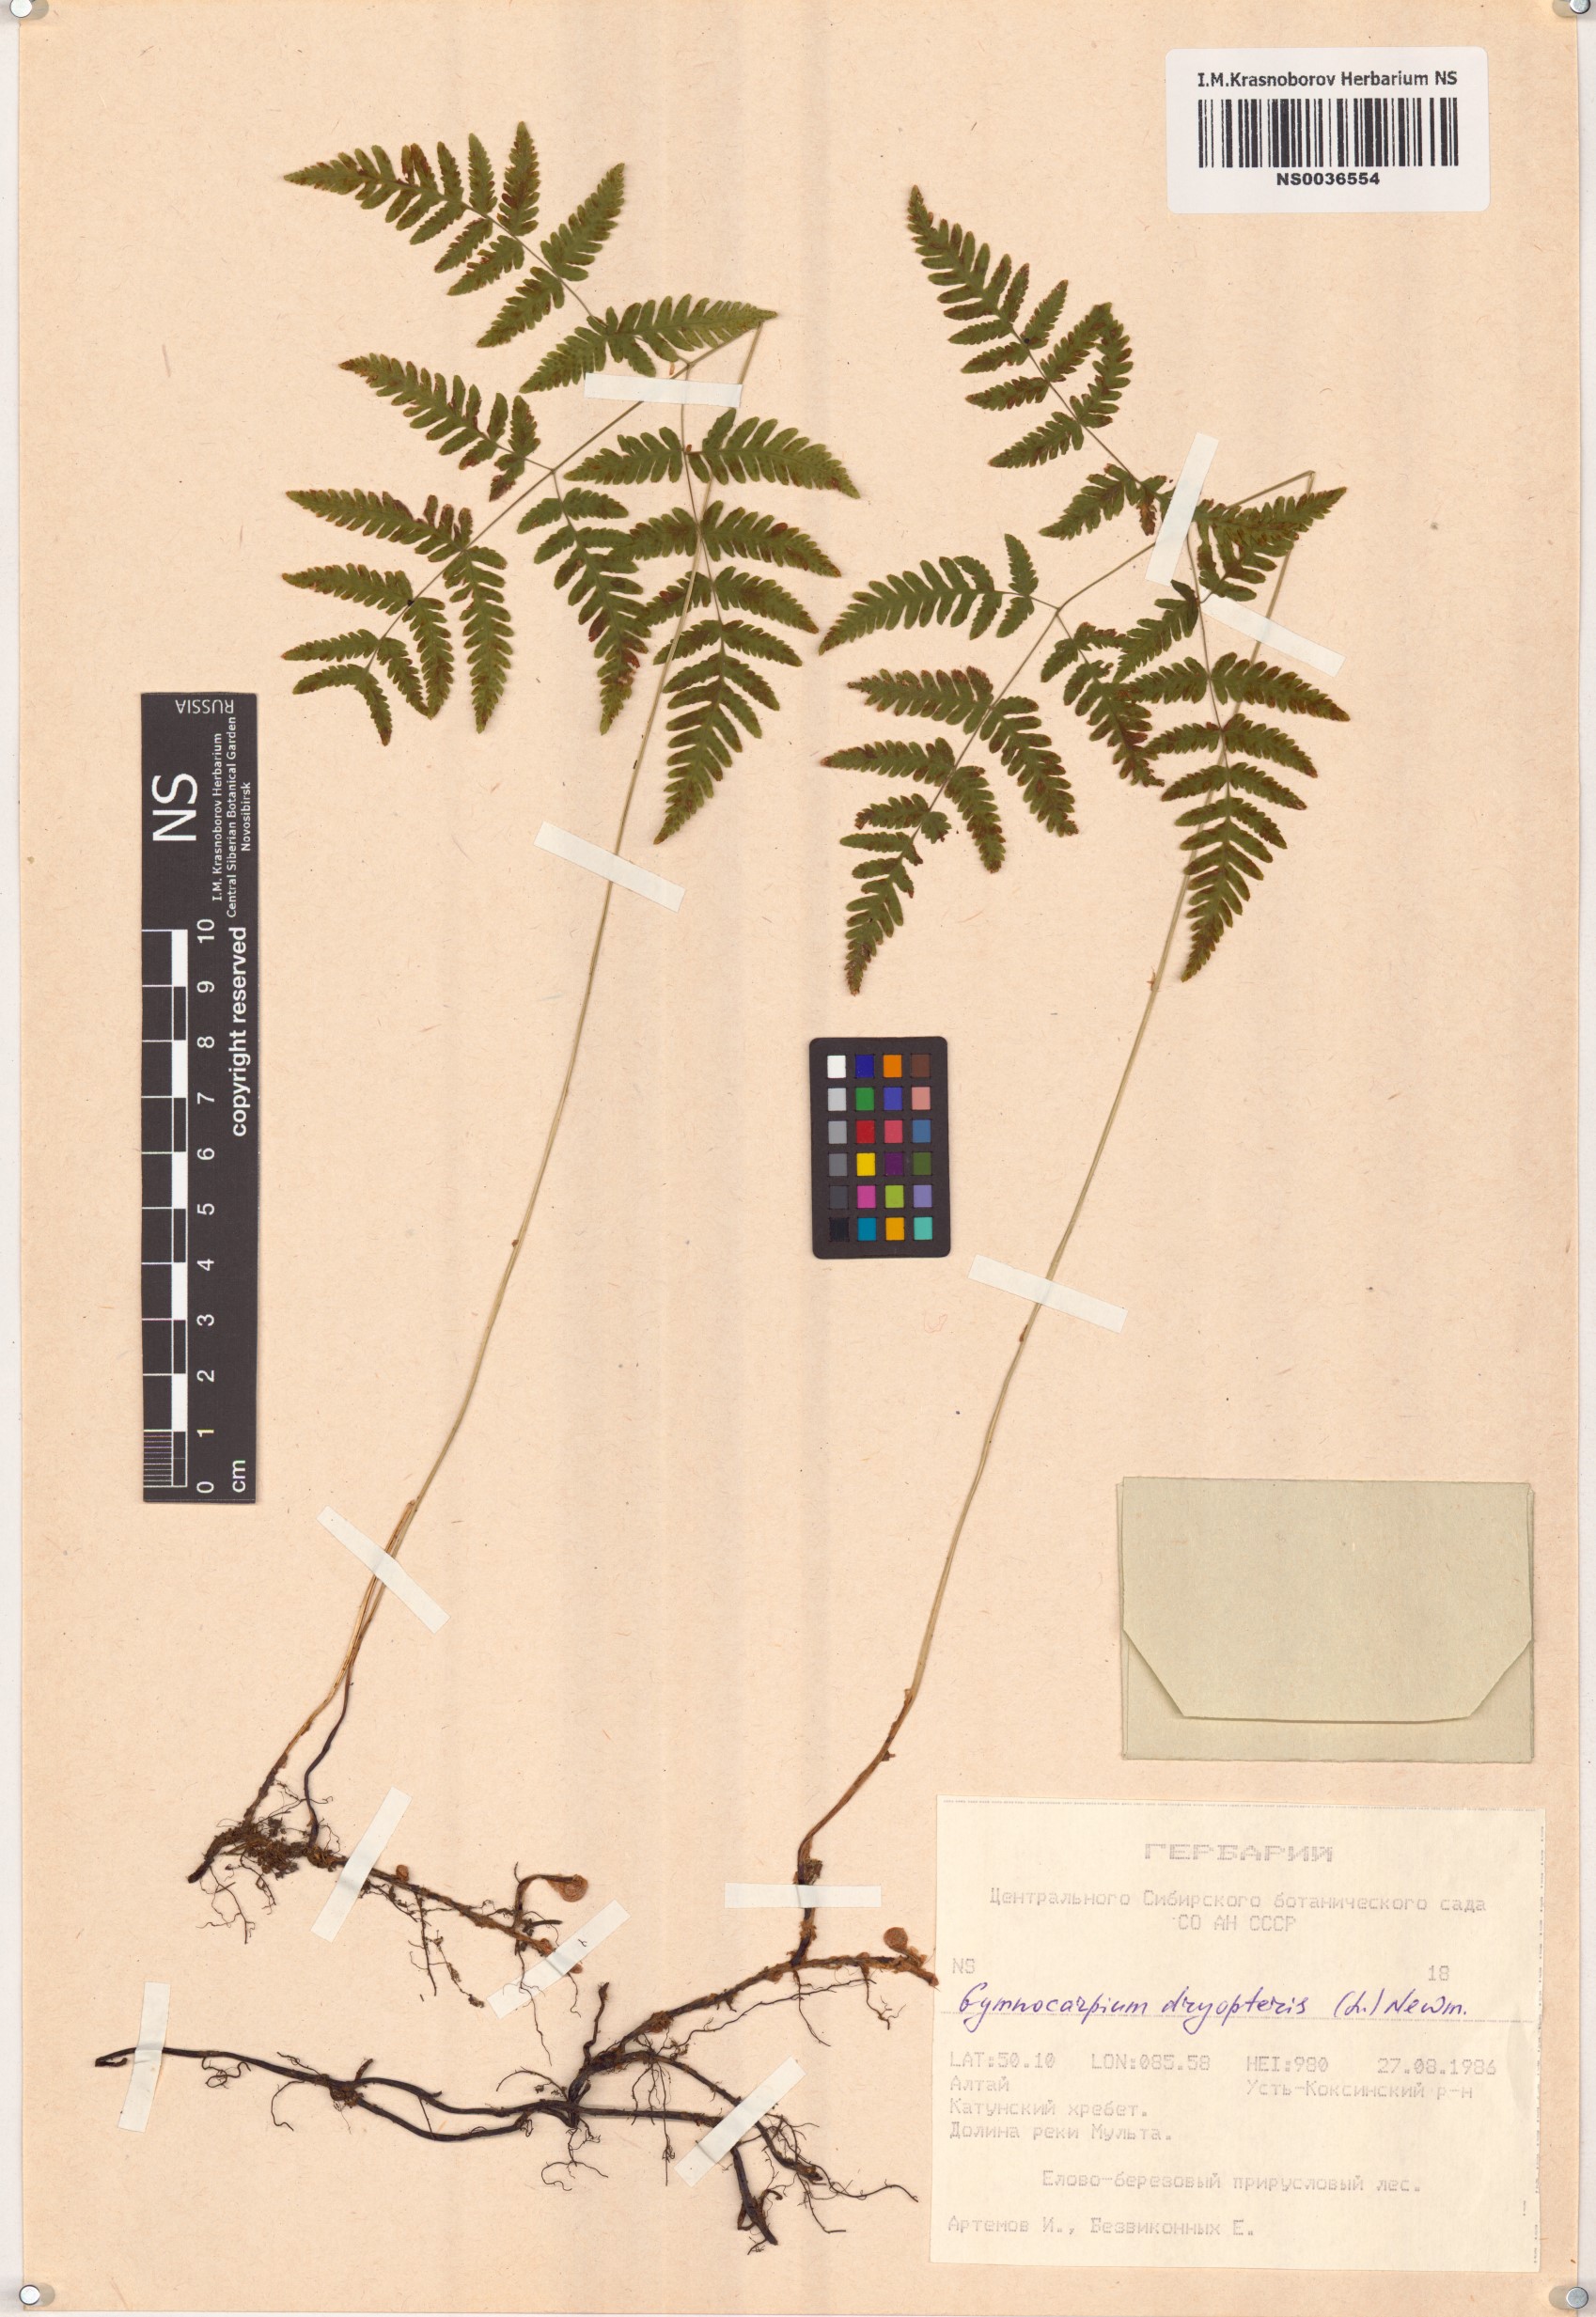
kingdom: Plantae
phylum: Tracheophyta
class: Polypodiopsida
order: Polypodiales
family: Cystopteridaceae
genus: Gymnocarpium
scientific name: Gymnocarpium dryopteris
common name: Oak fern
